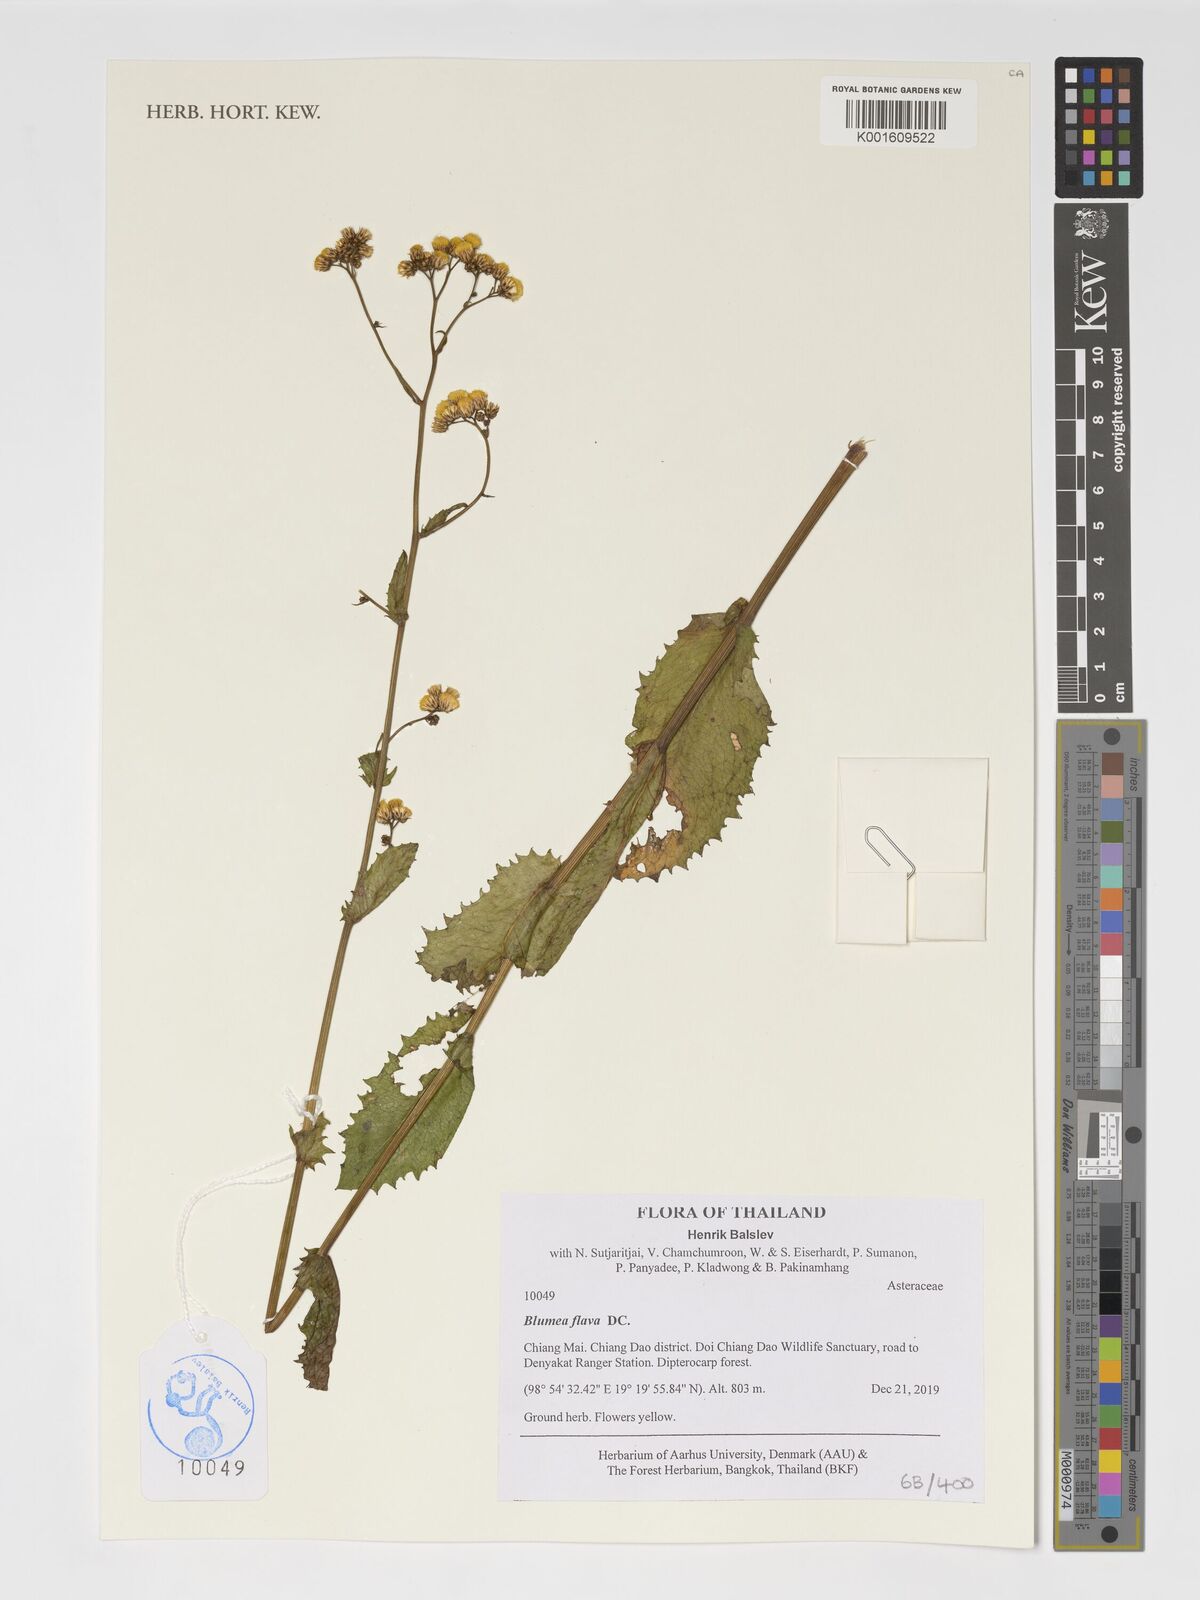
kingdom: Plantae
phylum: Tracheophyta
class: Magnoliopsida
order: Asterales
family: Asteraceae
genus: Blumeopsis
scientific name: Blumeopsis flava
